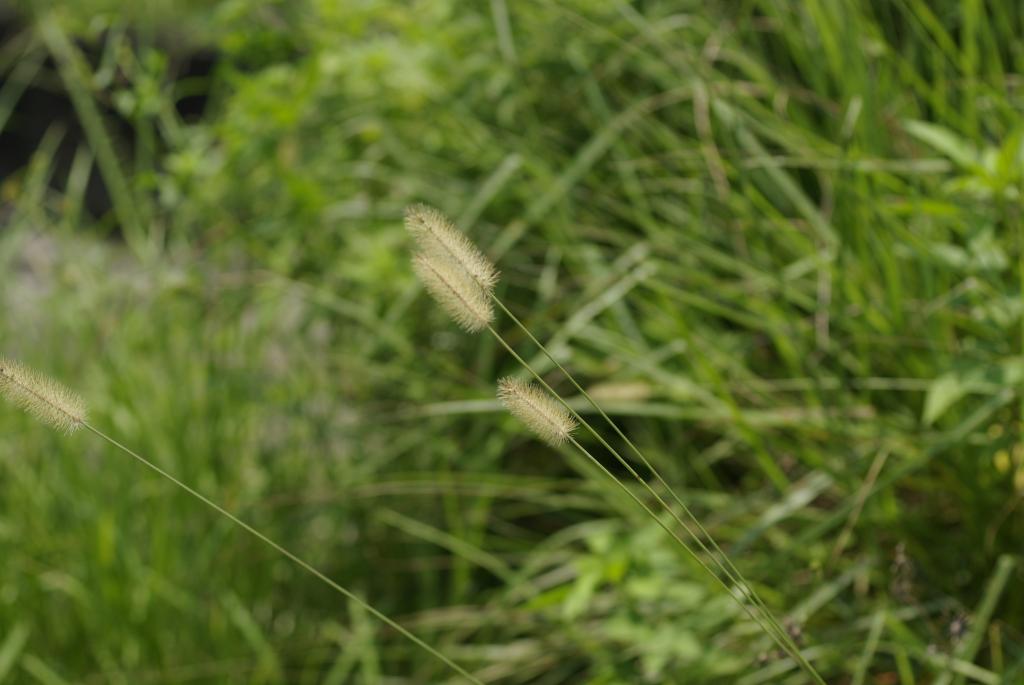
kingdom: Plantae
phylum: Tracheophyta
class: Liliopsida
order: Poales
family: Poaceae
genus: Setaria
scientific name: Setaria parviflora
